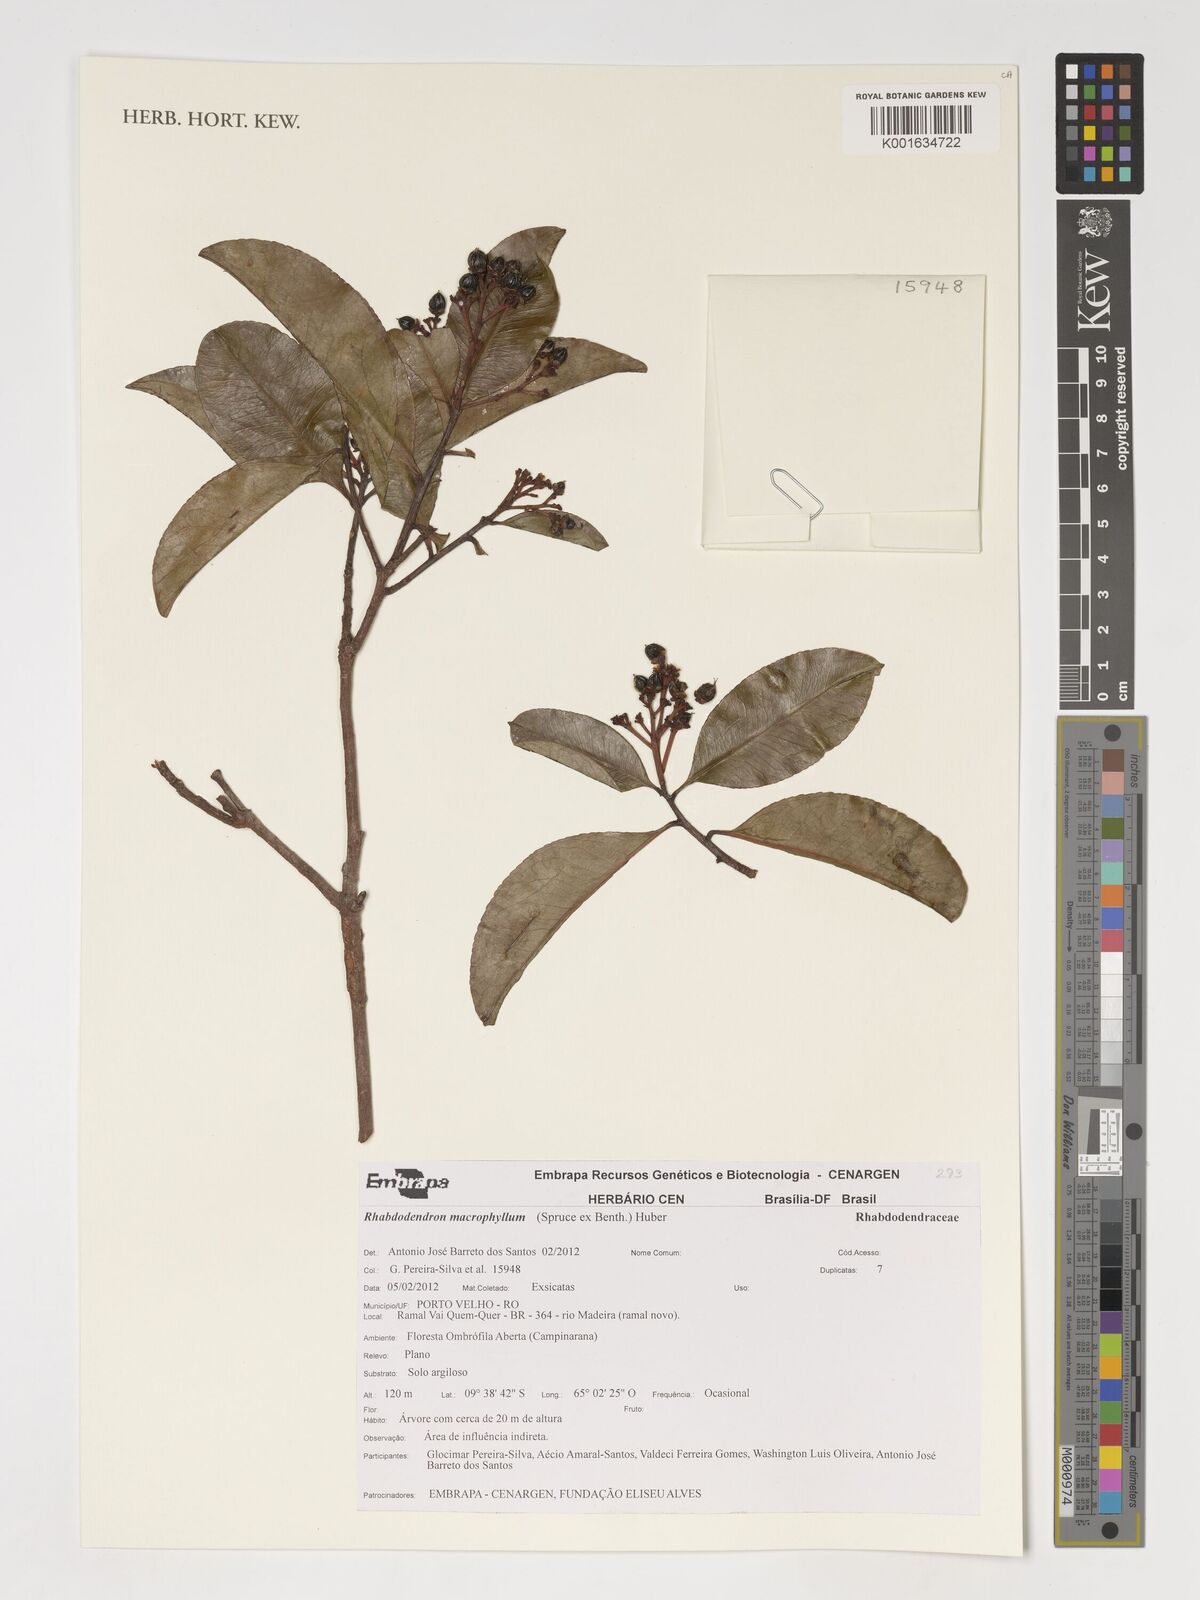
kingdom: Plantae
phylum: Tracheophyta
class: Magnoliopsida
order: Caryophyllales
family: Rhabdodendraceae
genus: Rhabdodendron
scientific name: Rhabdodendron macrophyllum
